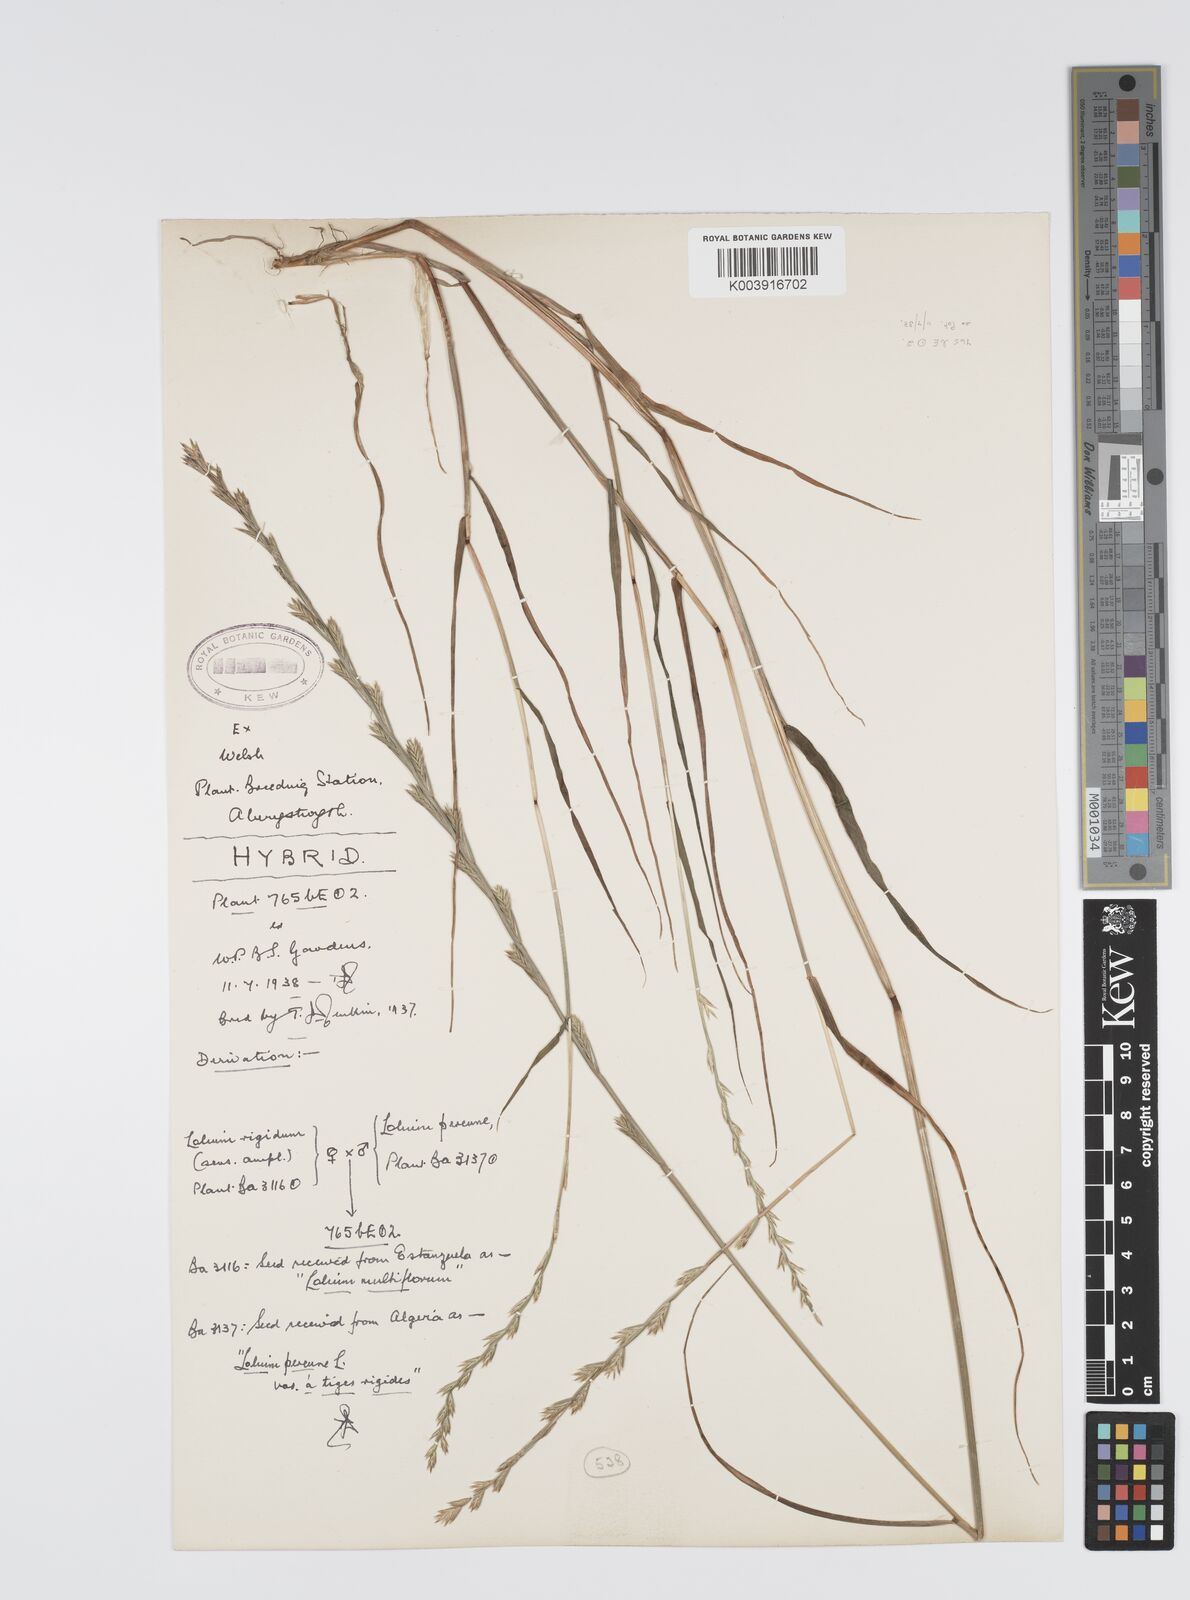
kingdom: Plantae
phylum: Tracheophyta
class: Liliopsida
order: Poales
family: Poaceae
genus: Lolium
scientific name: Lolium perenne
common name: Perennial ryegrass
